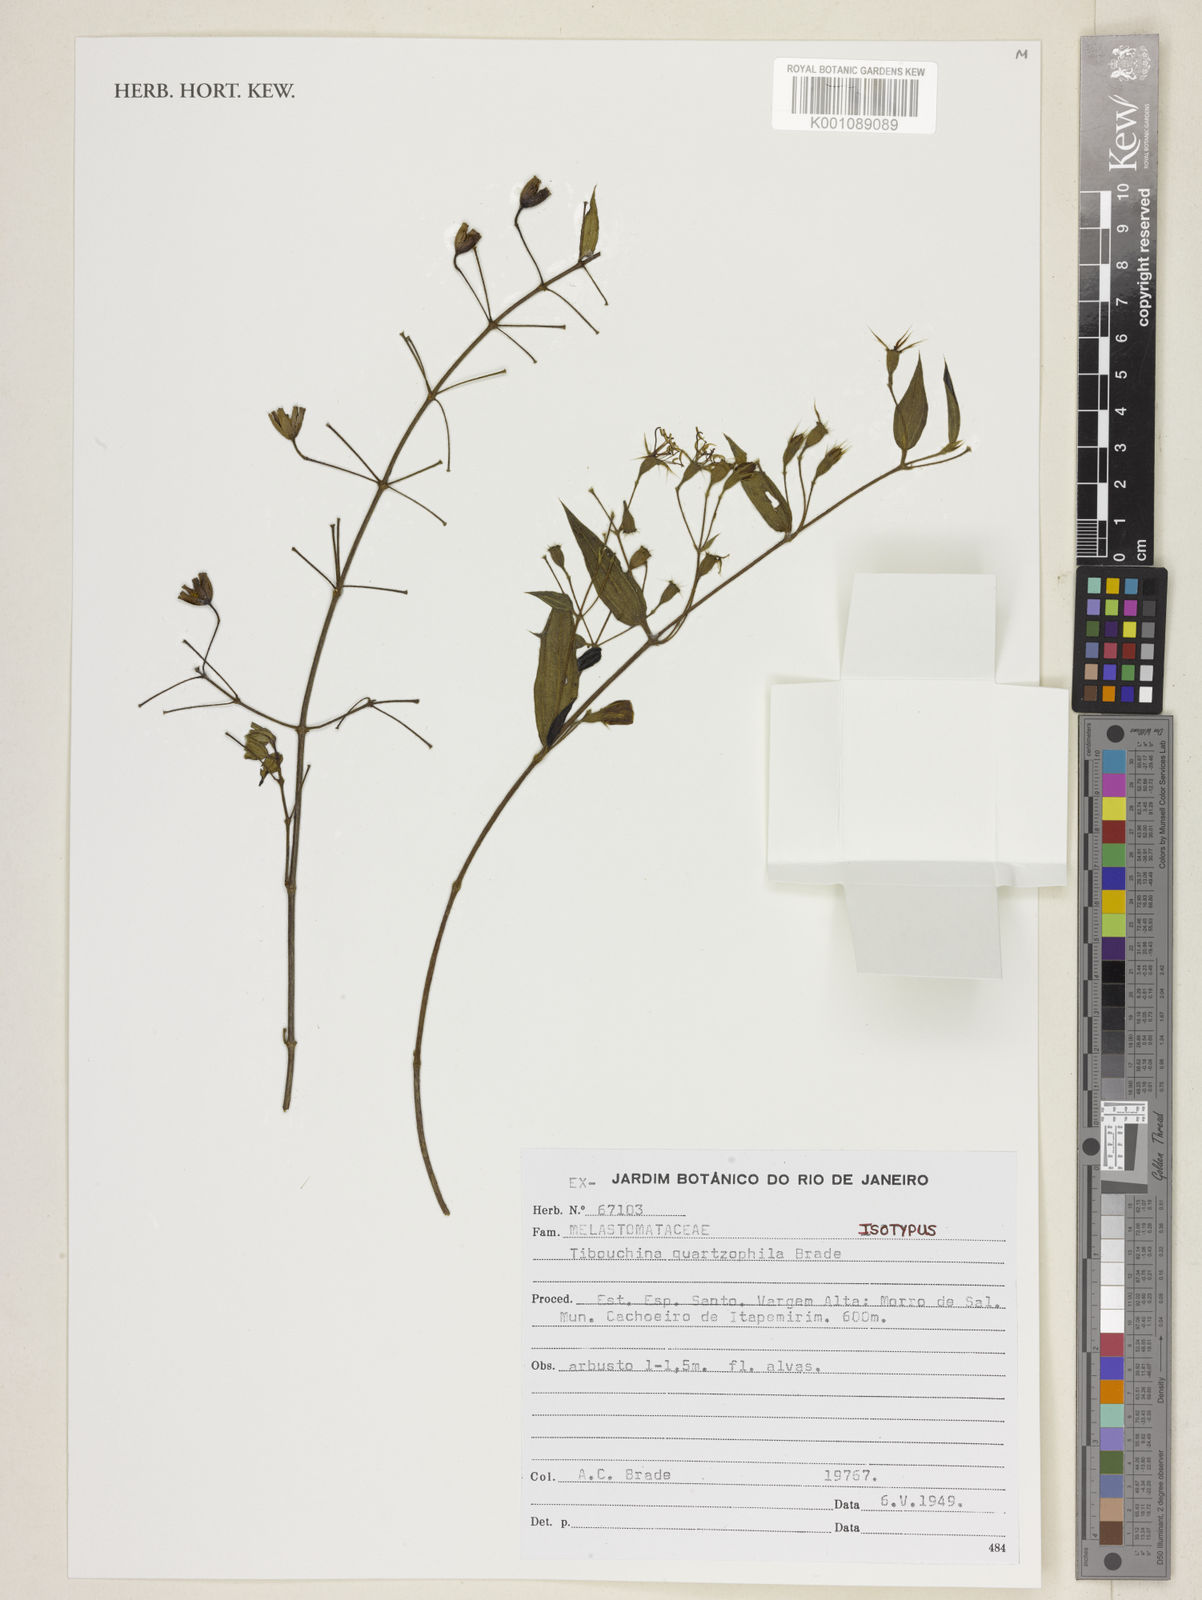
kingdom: Plantae
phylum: Tracheophyta
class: Magnoliopsida
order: Myrtales
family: Melastomataceae
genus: Pleroma
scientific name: Pleroma quartzophilum
